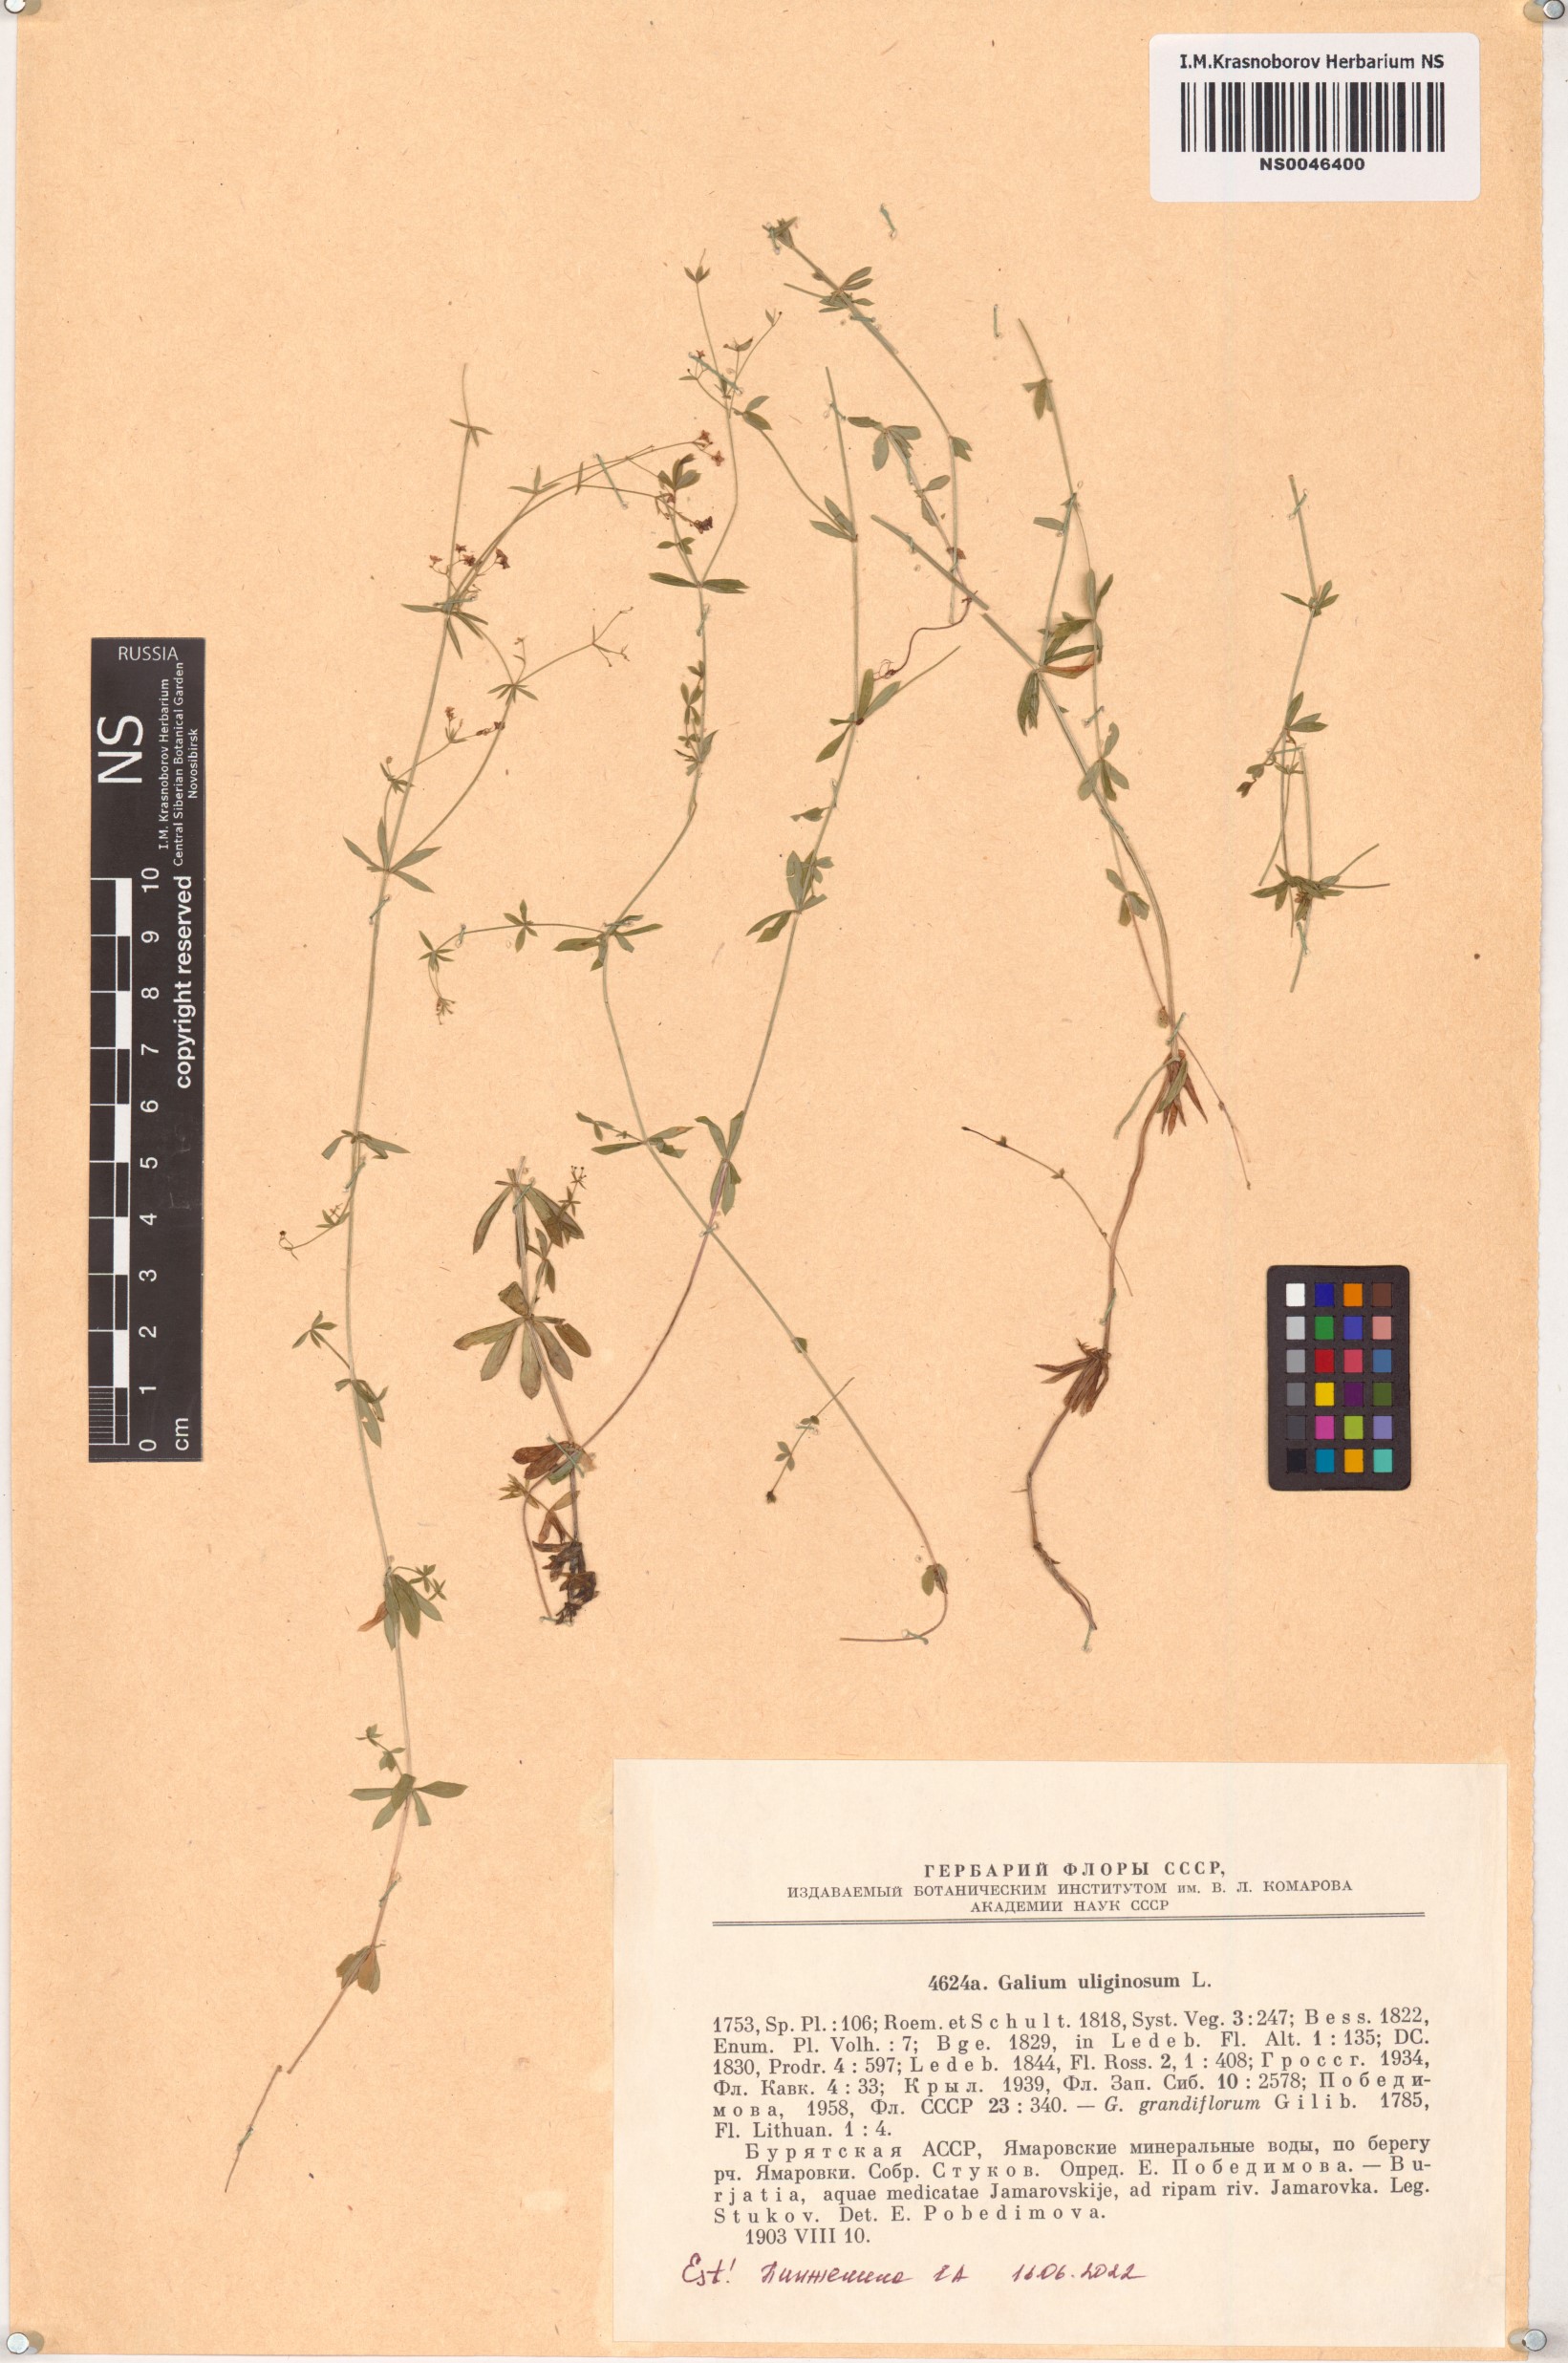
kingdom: Plantae
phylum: Tracheophyta
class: Magnoliopsida
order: Gentianales
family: Rubiaceae
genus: Galium
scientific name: Galium uliginosum
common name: Fen bedstraw
